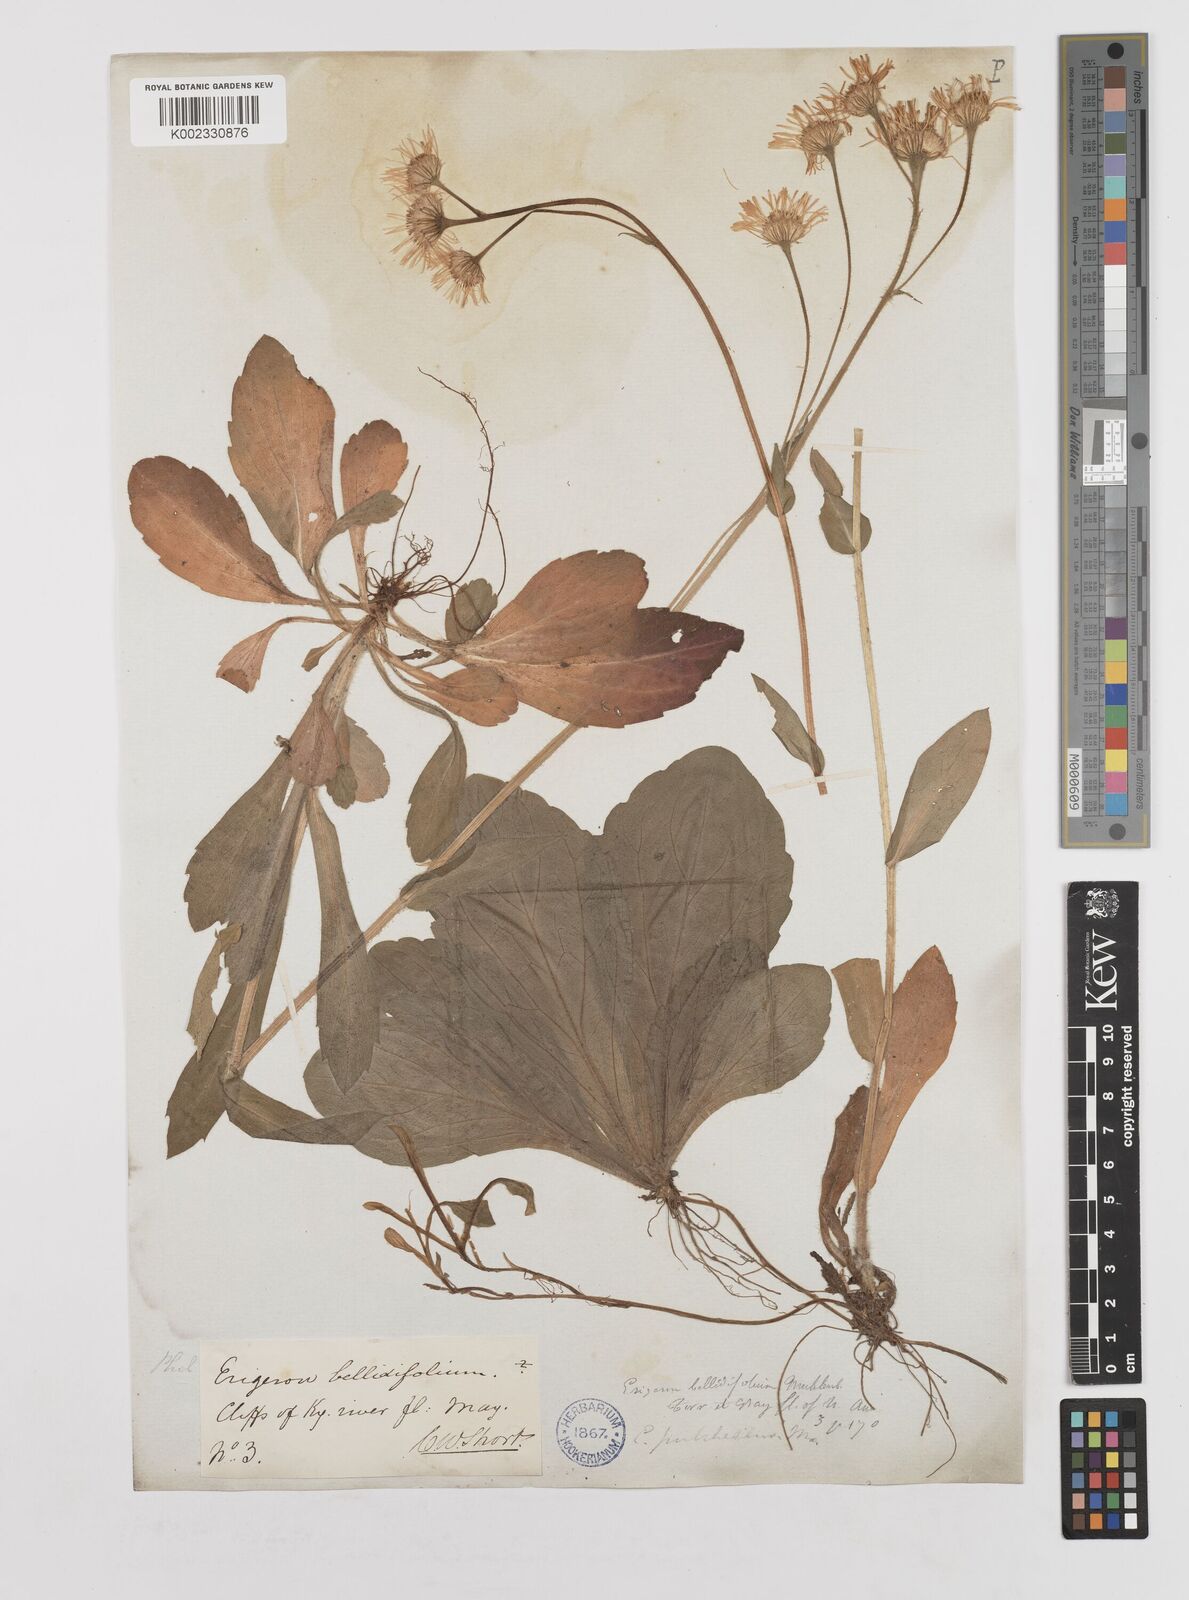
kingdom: Plantae
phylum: Tracheophyta
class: Magnoliopsida
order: Asterales
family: Asteraceae
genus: Erigeron
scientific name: Erigeron pulchellus
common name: Hairy fleabane
